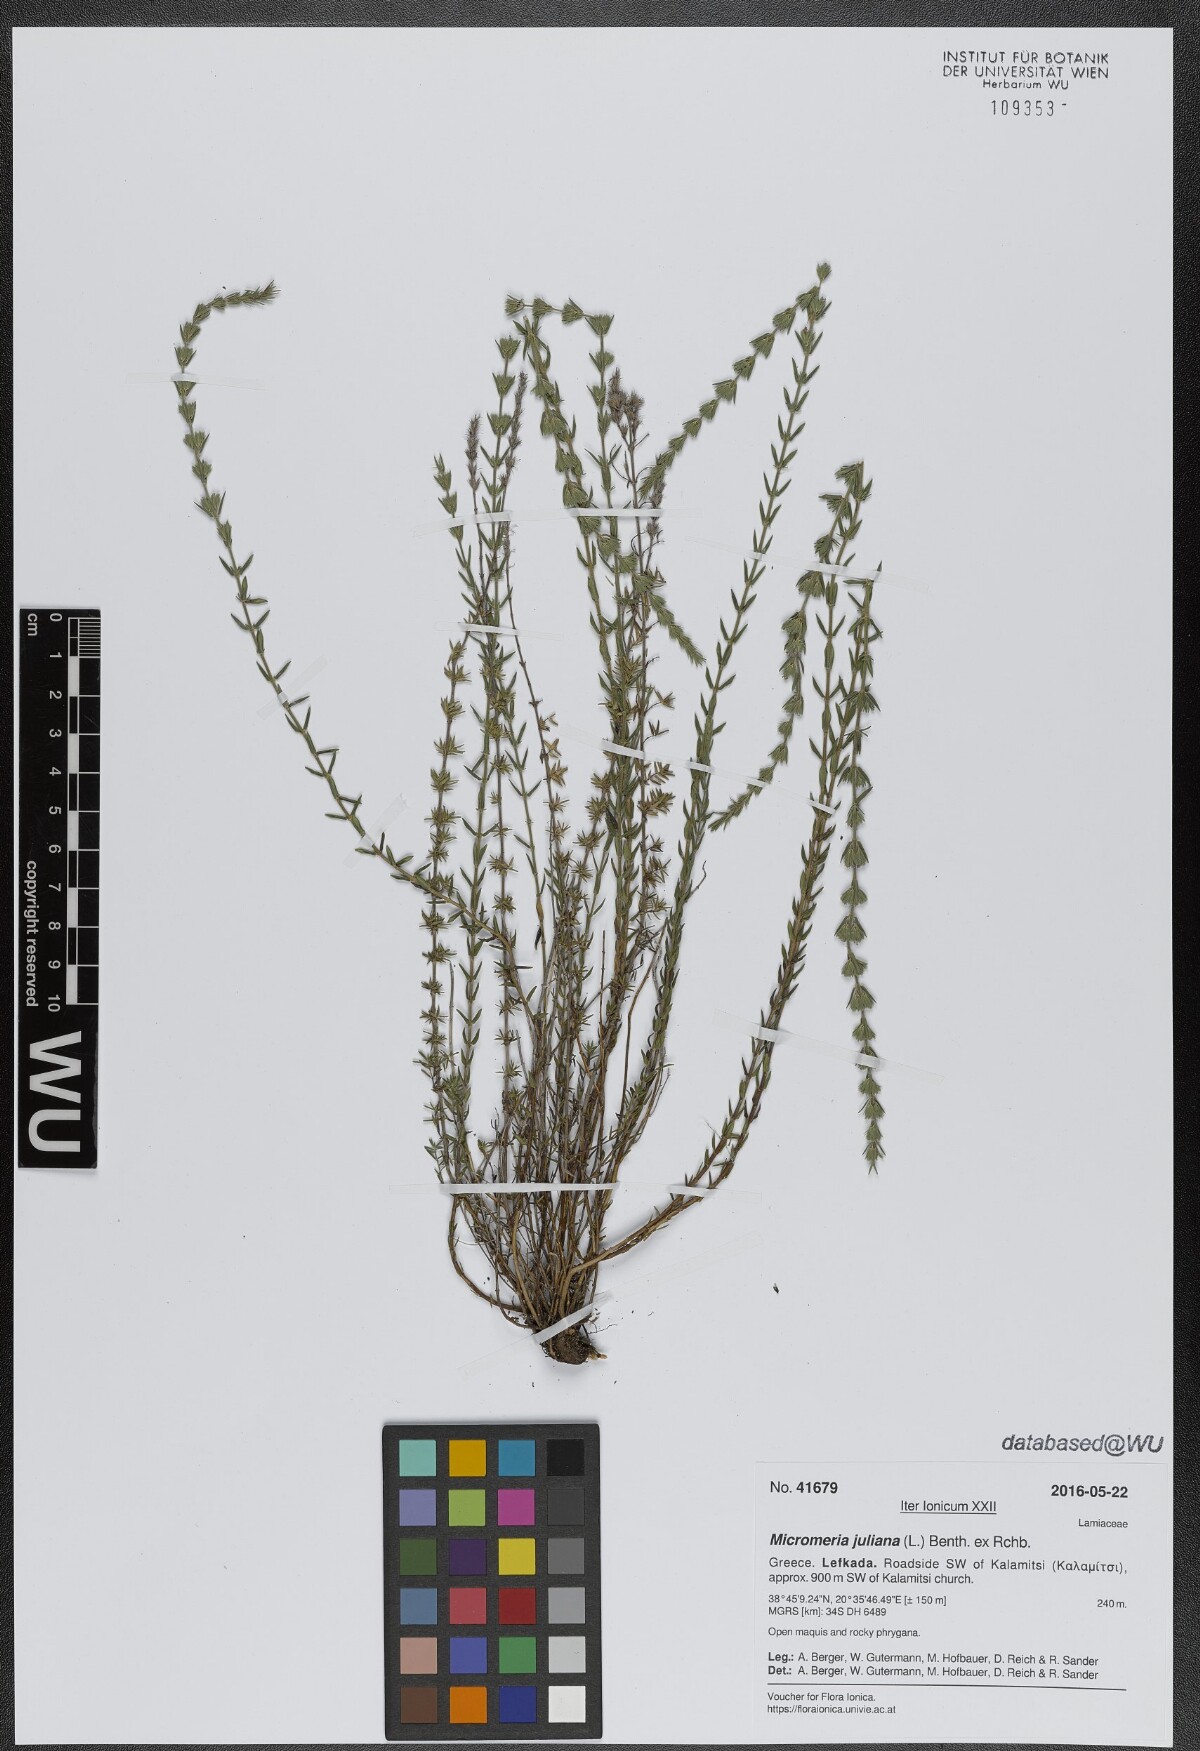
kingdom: Plantae
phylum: Tracheophyta
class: Magnoliopsida
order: Lamiales
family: Lamiaceae
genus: Micromeria
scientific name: Micromeria juliana
